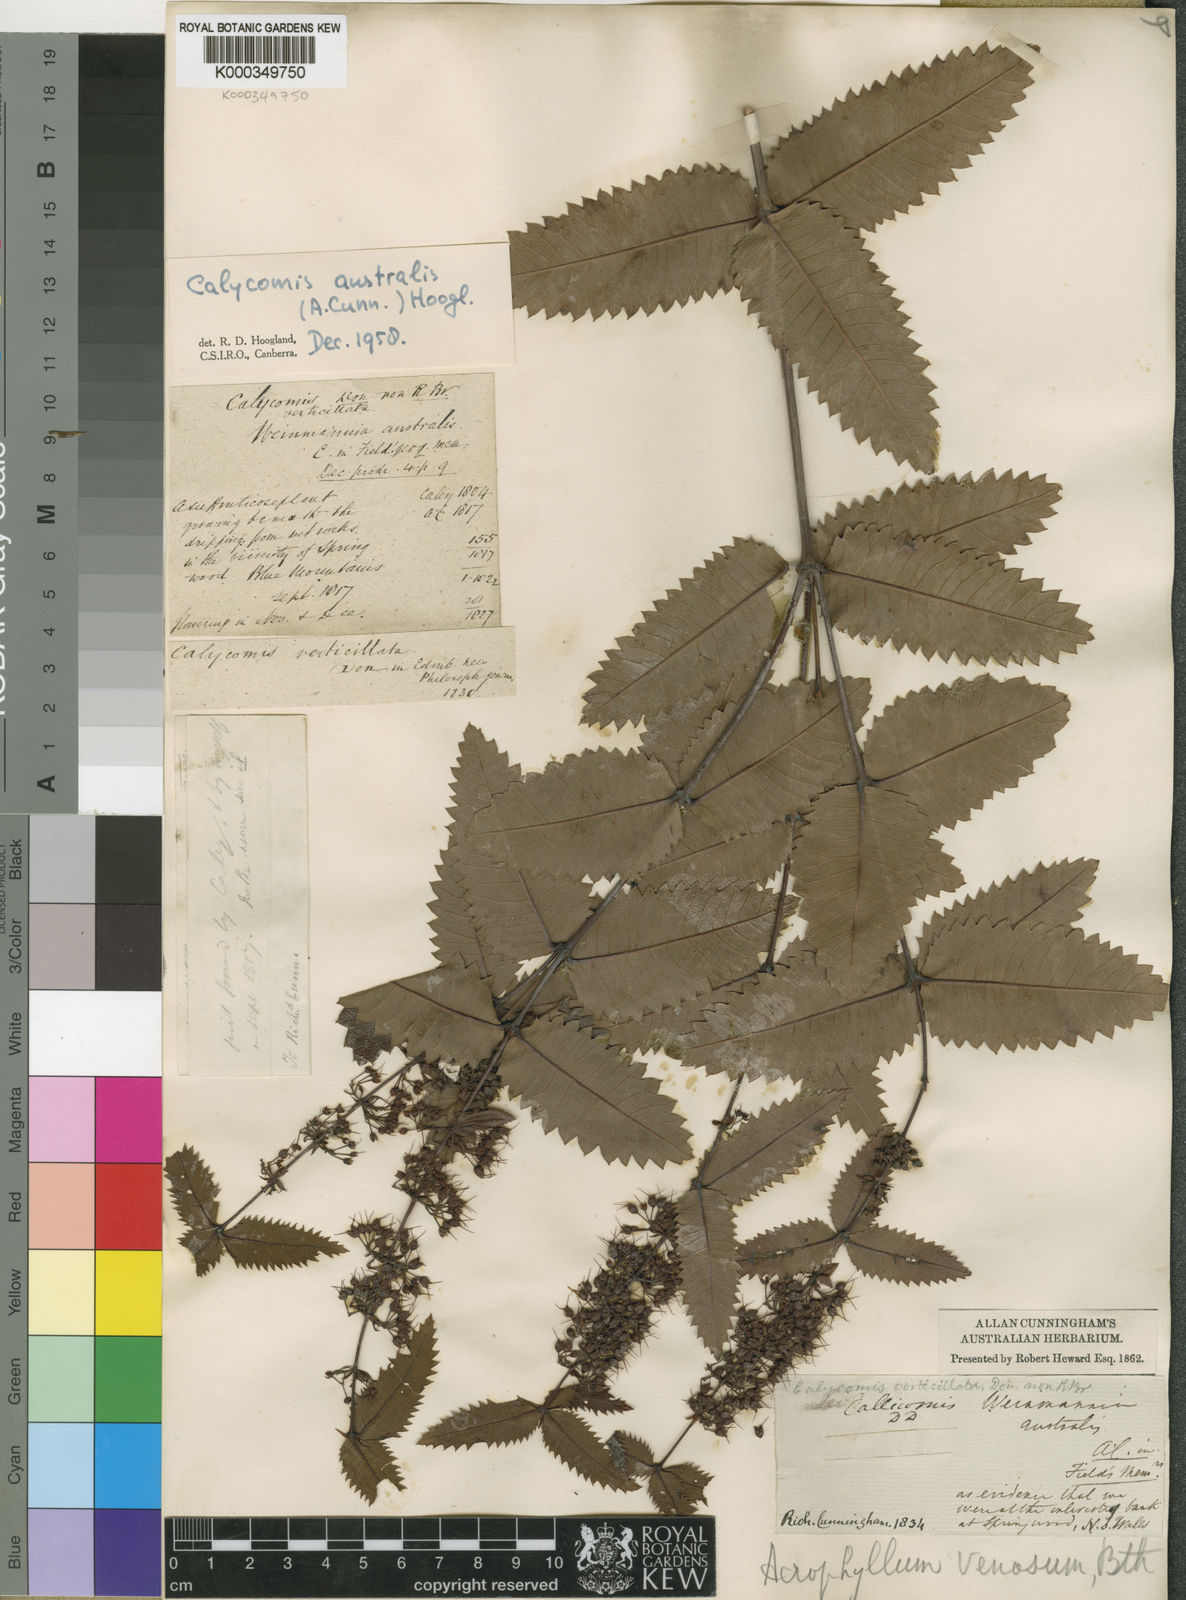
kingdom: Plantae
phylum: Tracheophyta
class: Magnoliopsida
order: Oxalidales
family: Cunoniaceae
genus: Acrophyllum
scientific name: Acrophyllum australe
